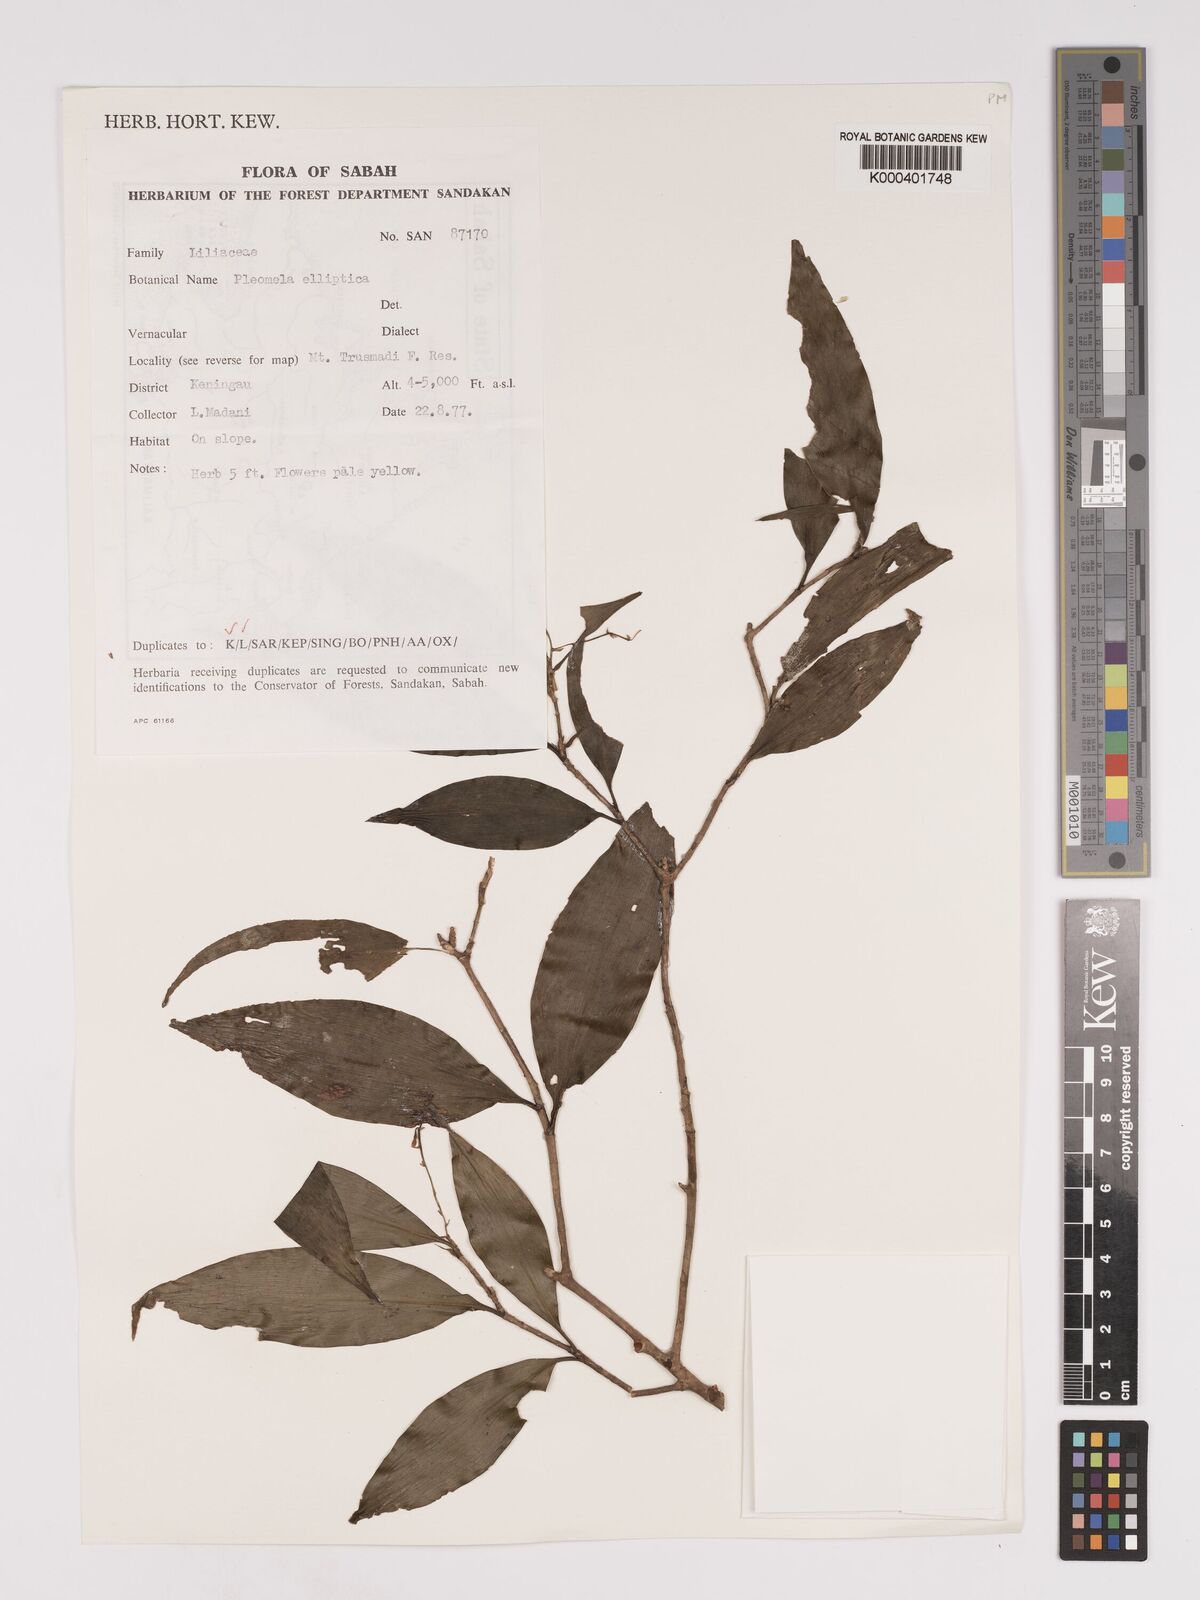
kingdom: Plantae
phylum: Tracheophyta
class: Liliopsida
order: Asparagales
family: Asparagaceae
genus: Dracaena
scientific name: Dracaena elliptica
